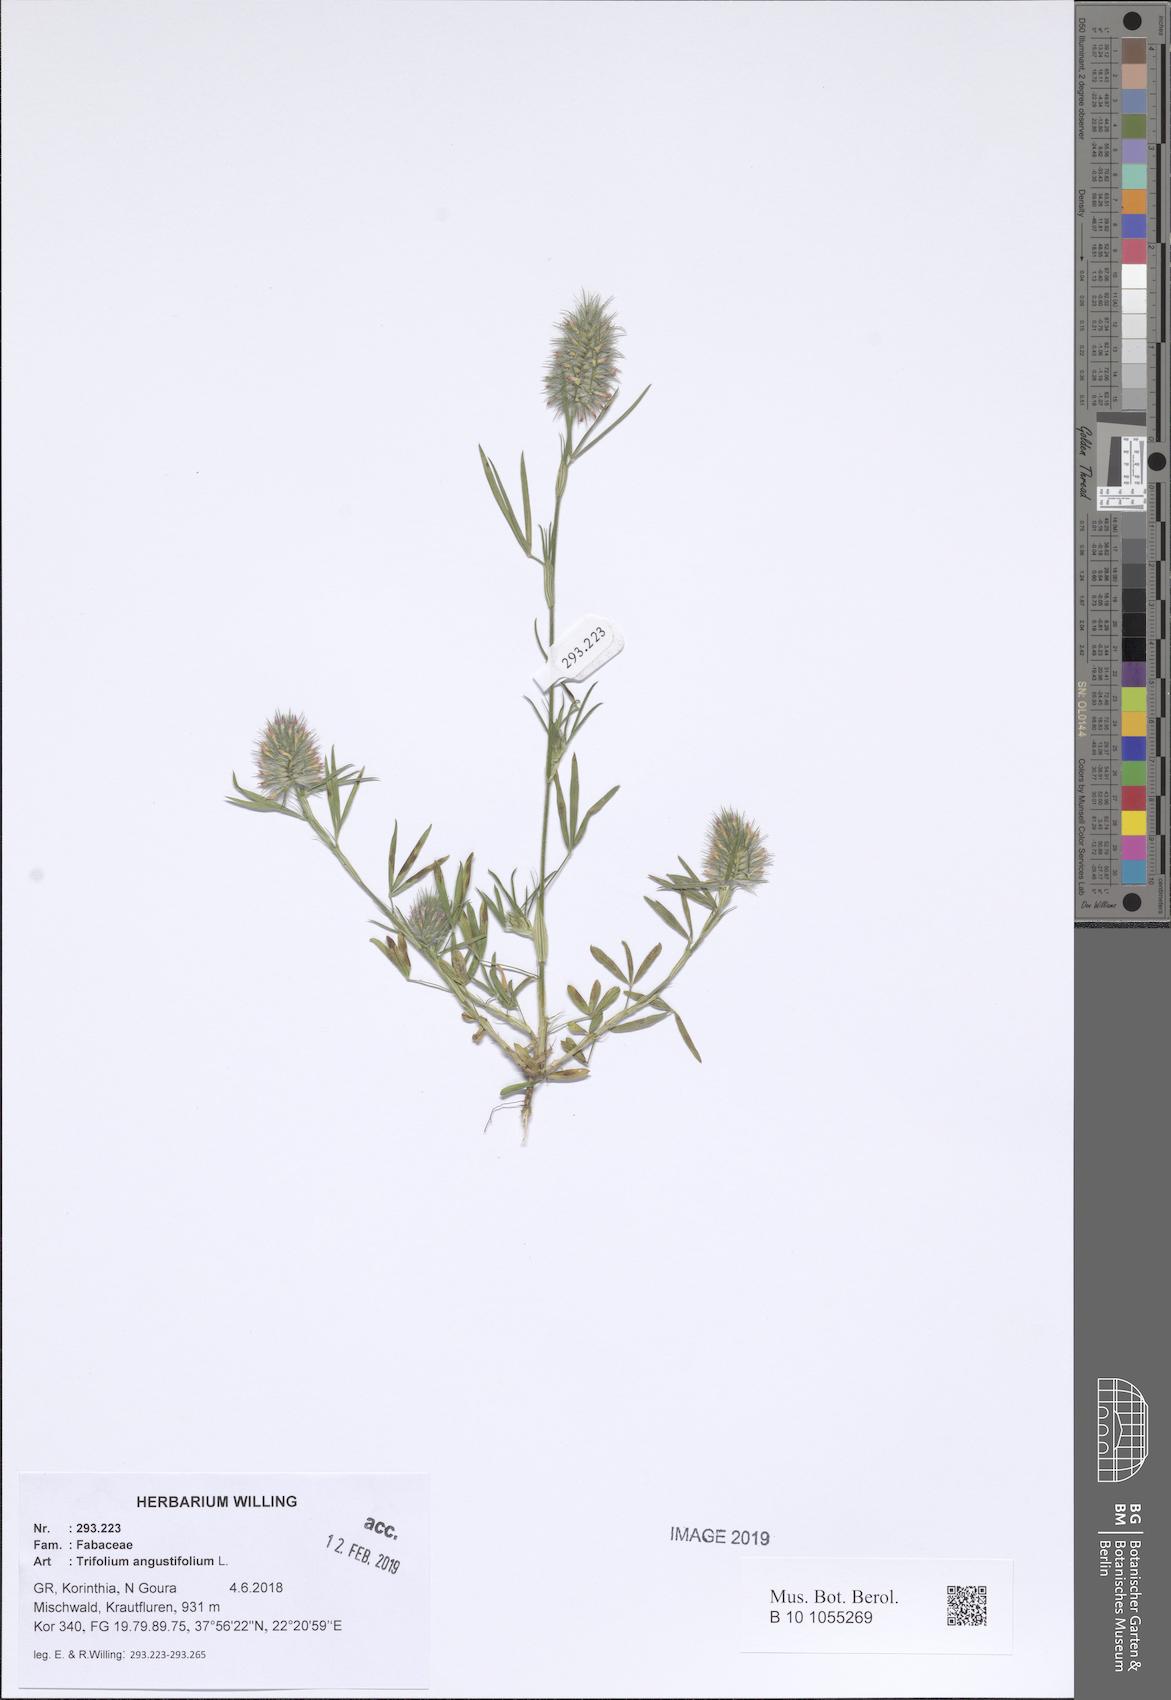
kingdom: Plantae
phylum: Tracheophyta
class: Magnoliopsida
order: Fabales
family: Fabaceae
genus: Trifolium
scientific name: Trifolium angustifolium
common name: Narrow clover
